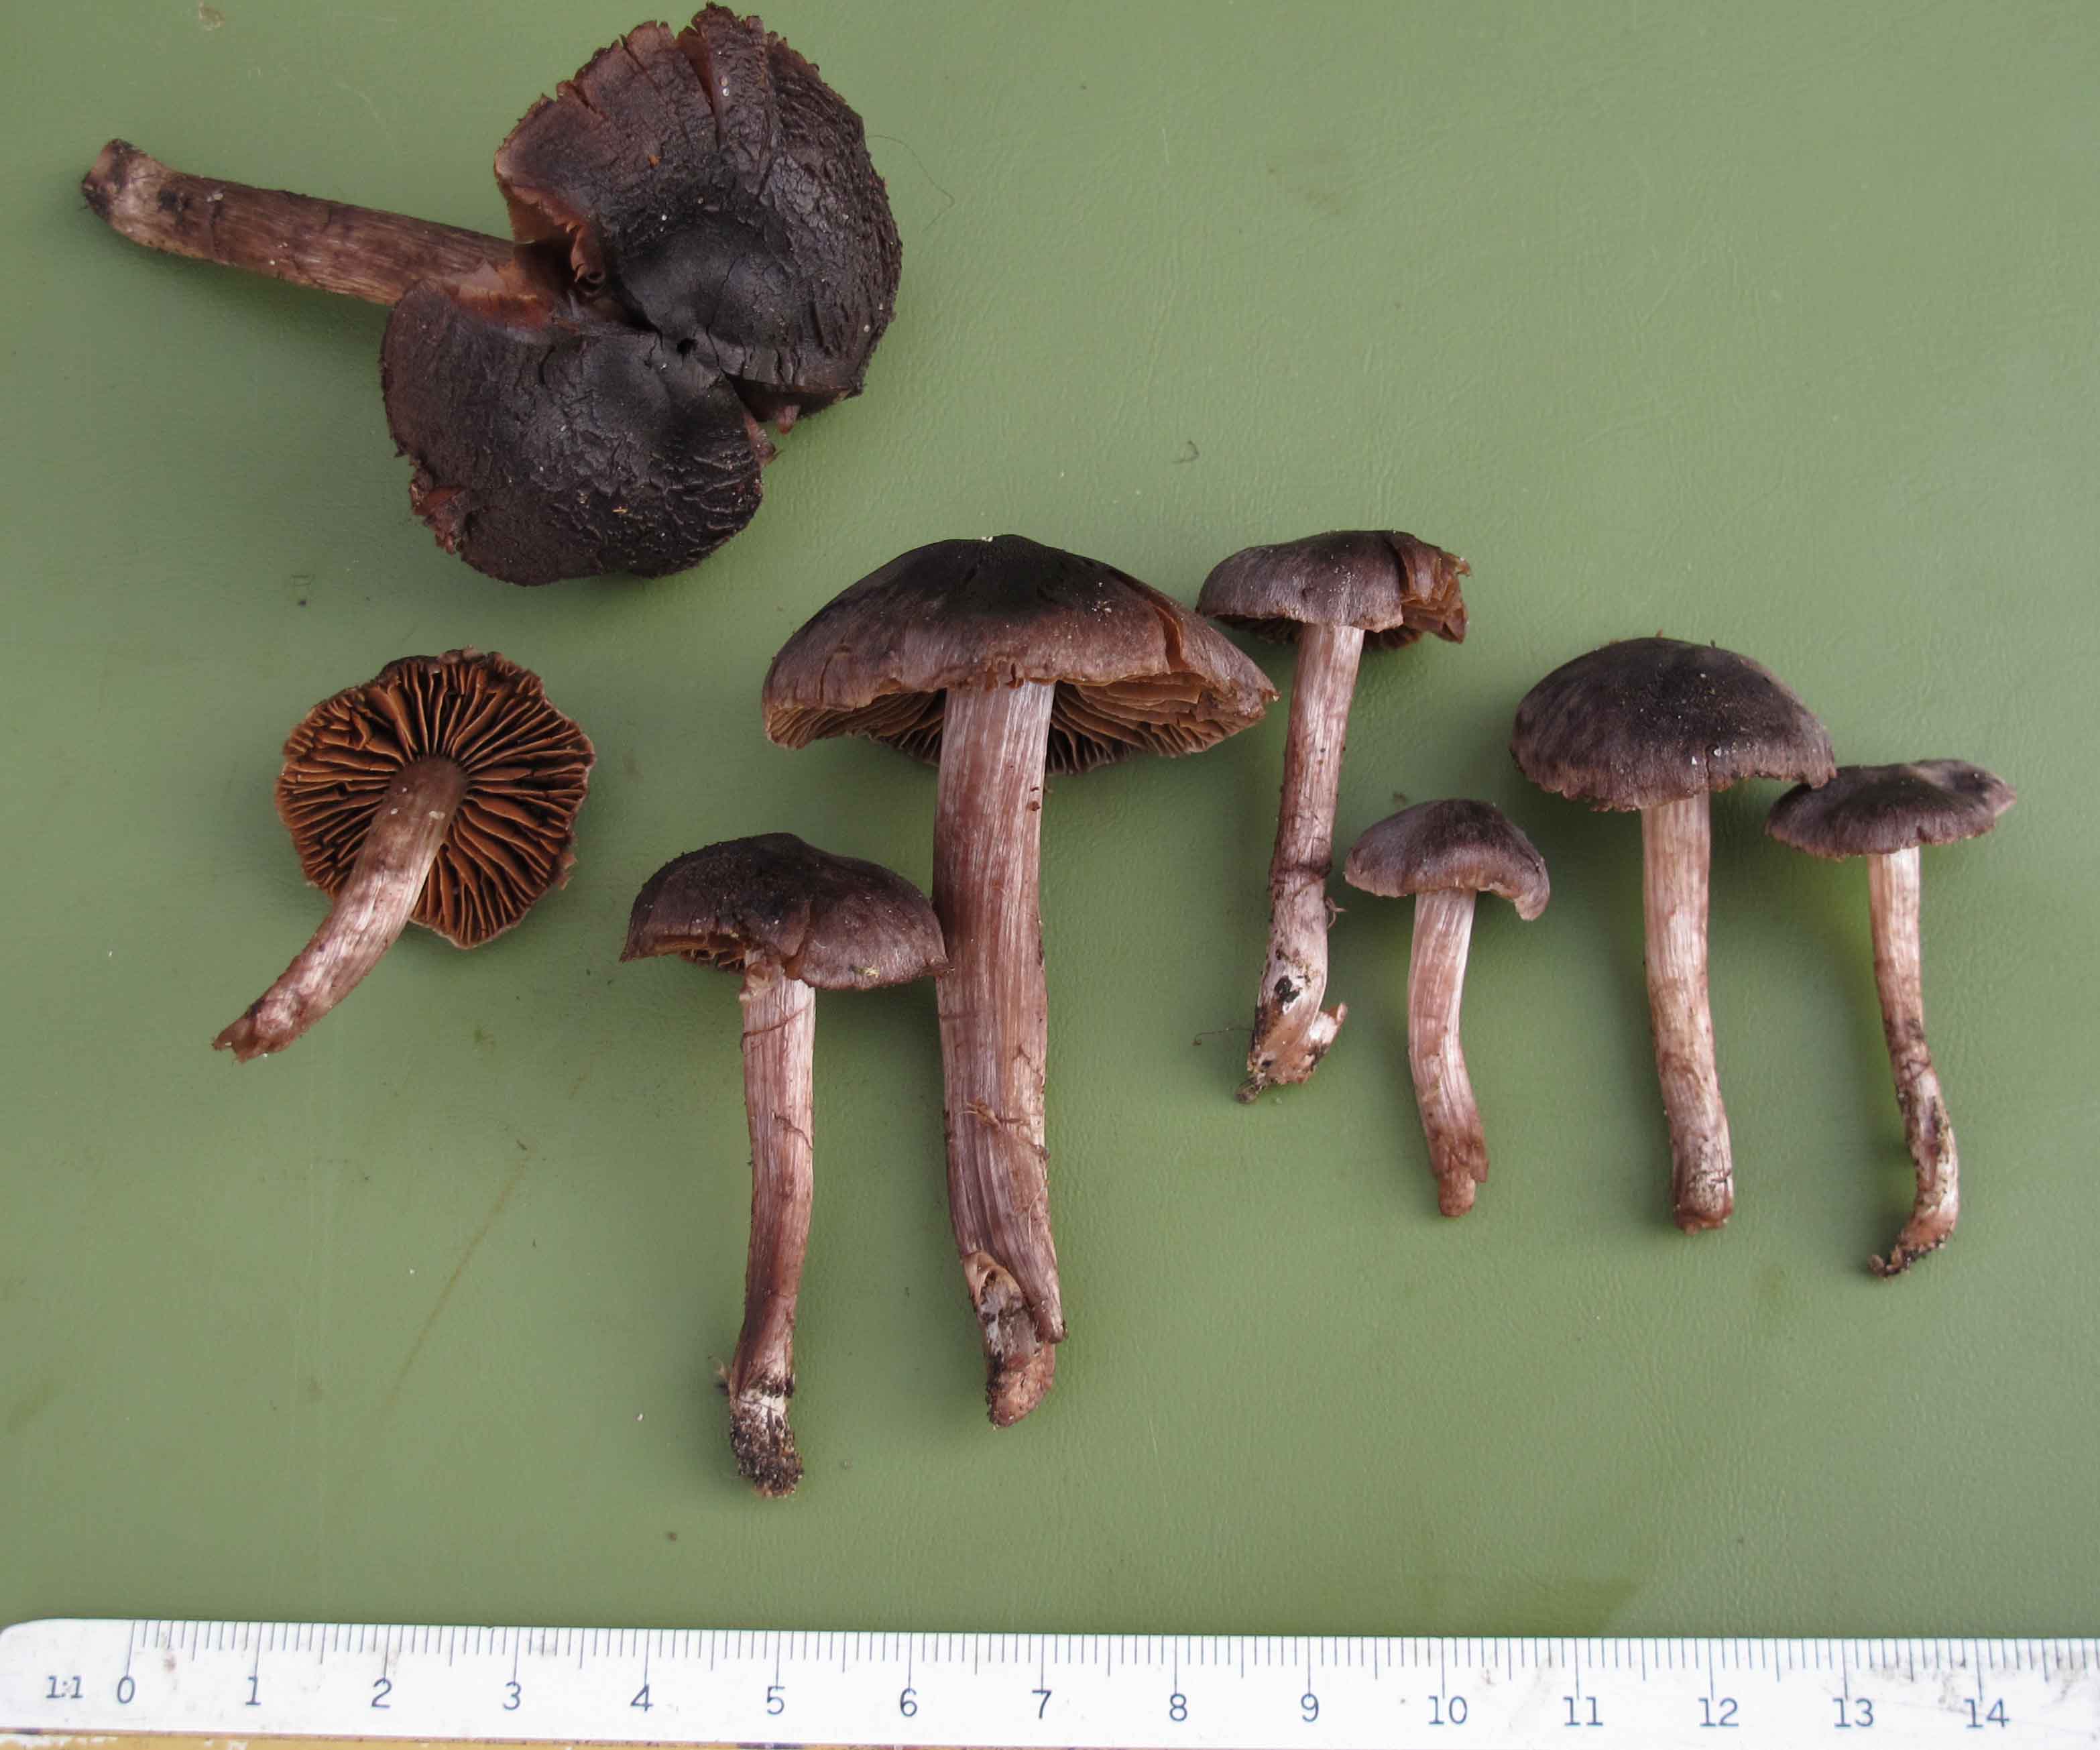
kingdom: Fungi
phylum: Basidiomycota
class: Agaricomycetes
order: Agaricales
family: Cortinariaceae
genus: Cortinarius
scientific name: Cortinarius vernus
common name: sommer-slørhat
